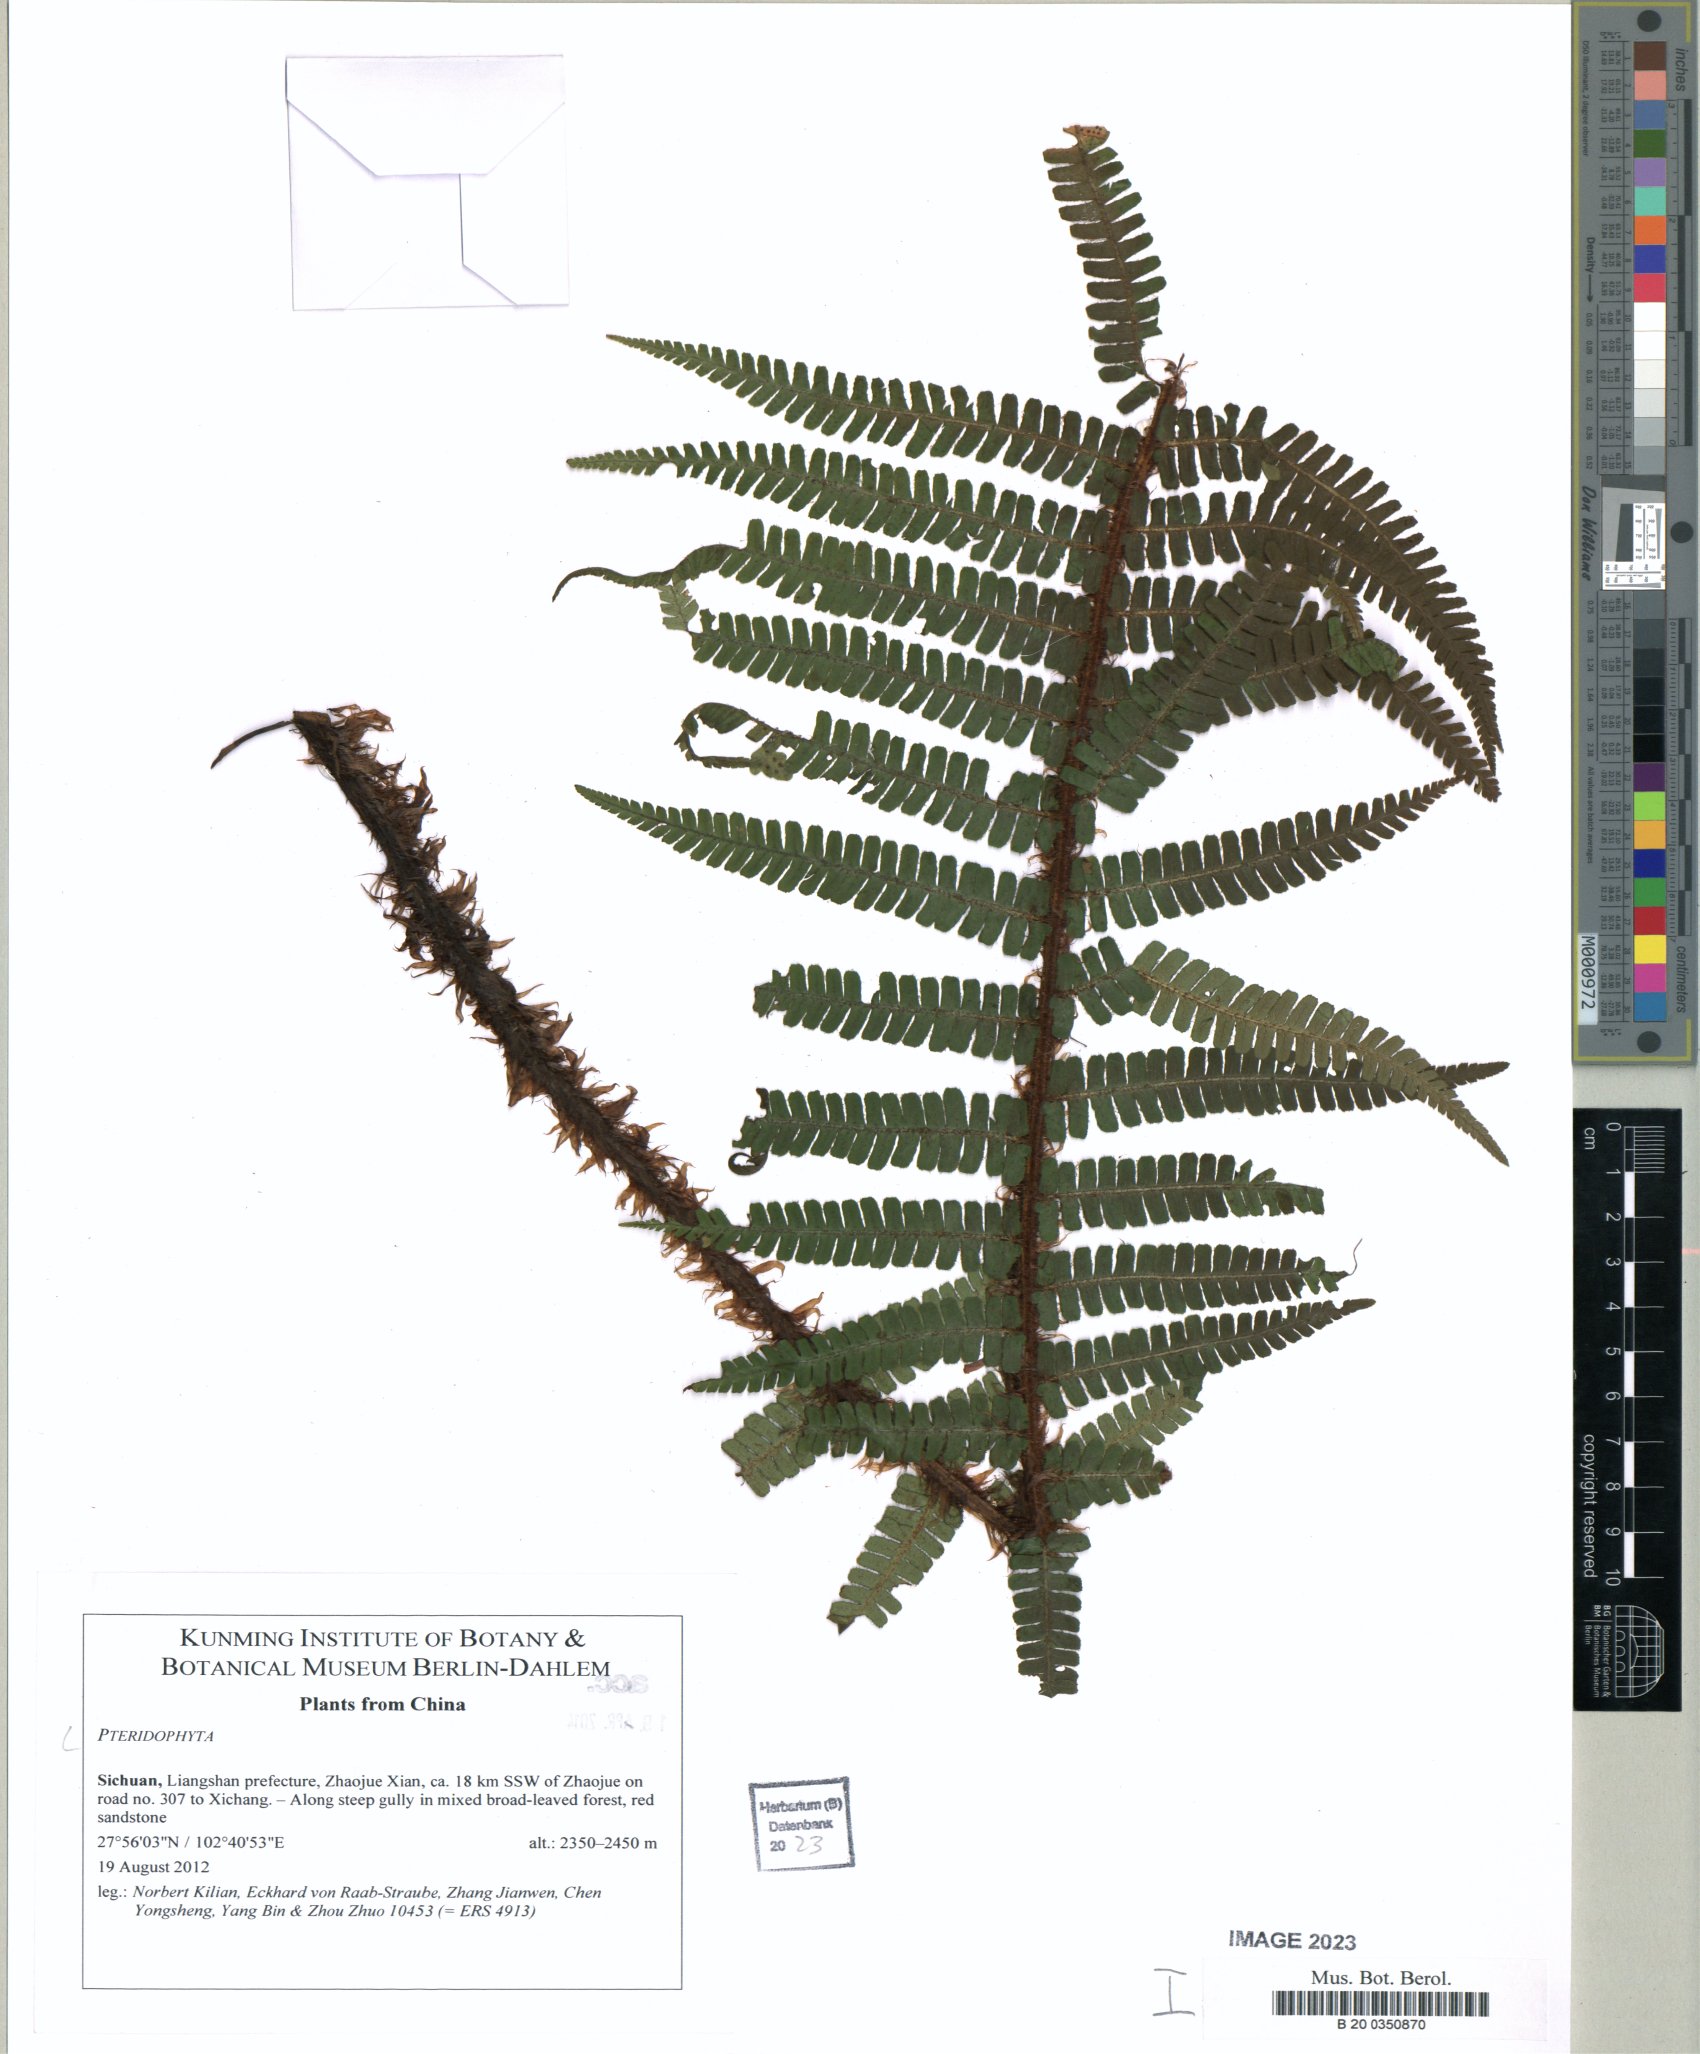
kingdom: Plantae
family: Pteridophyta
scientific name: Pteridophyta
